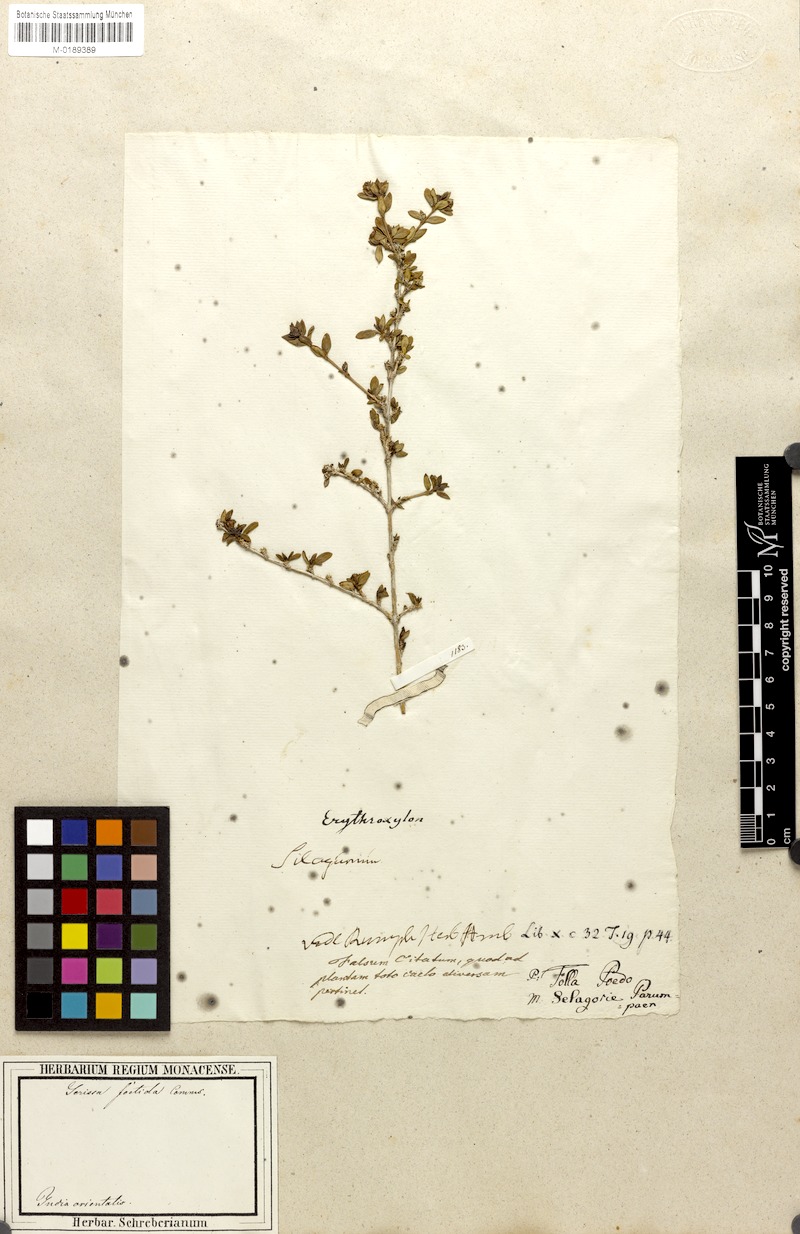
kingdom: Plantae
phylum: Tracheophyta
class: Magnoliopsida
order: Gentianales
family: Rubiaceae
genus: Buchozia
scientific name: Buchozia japonica
